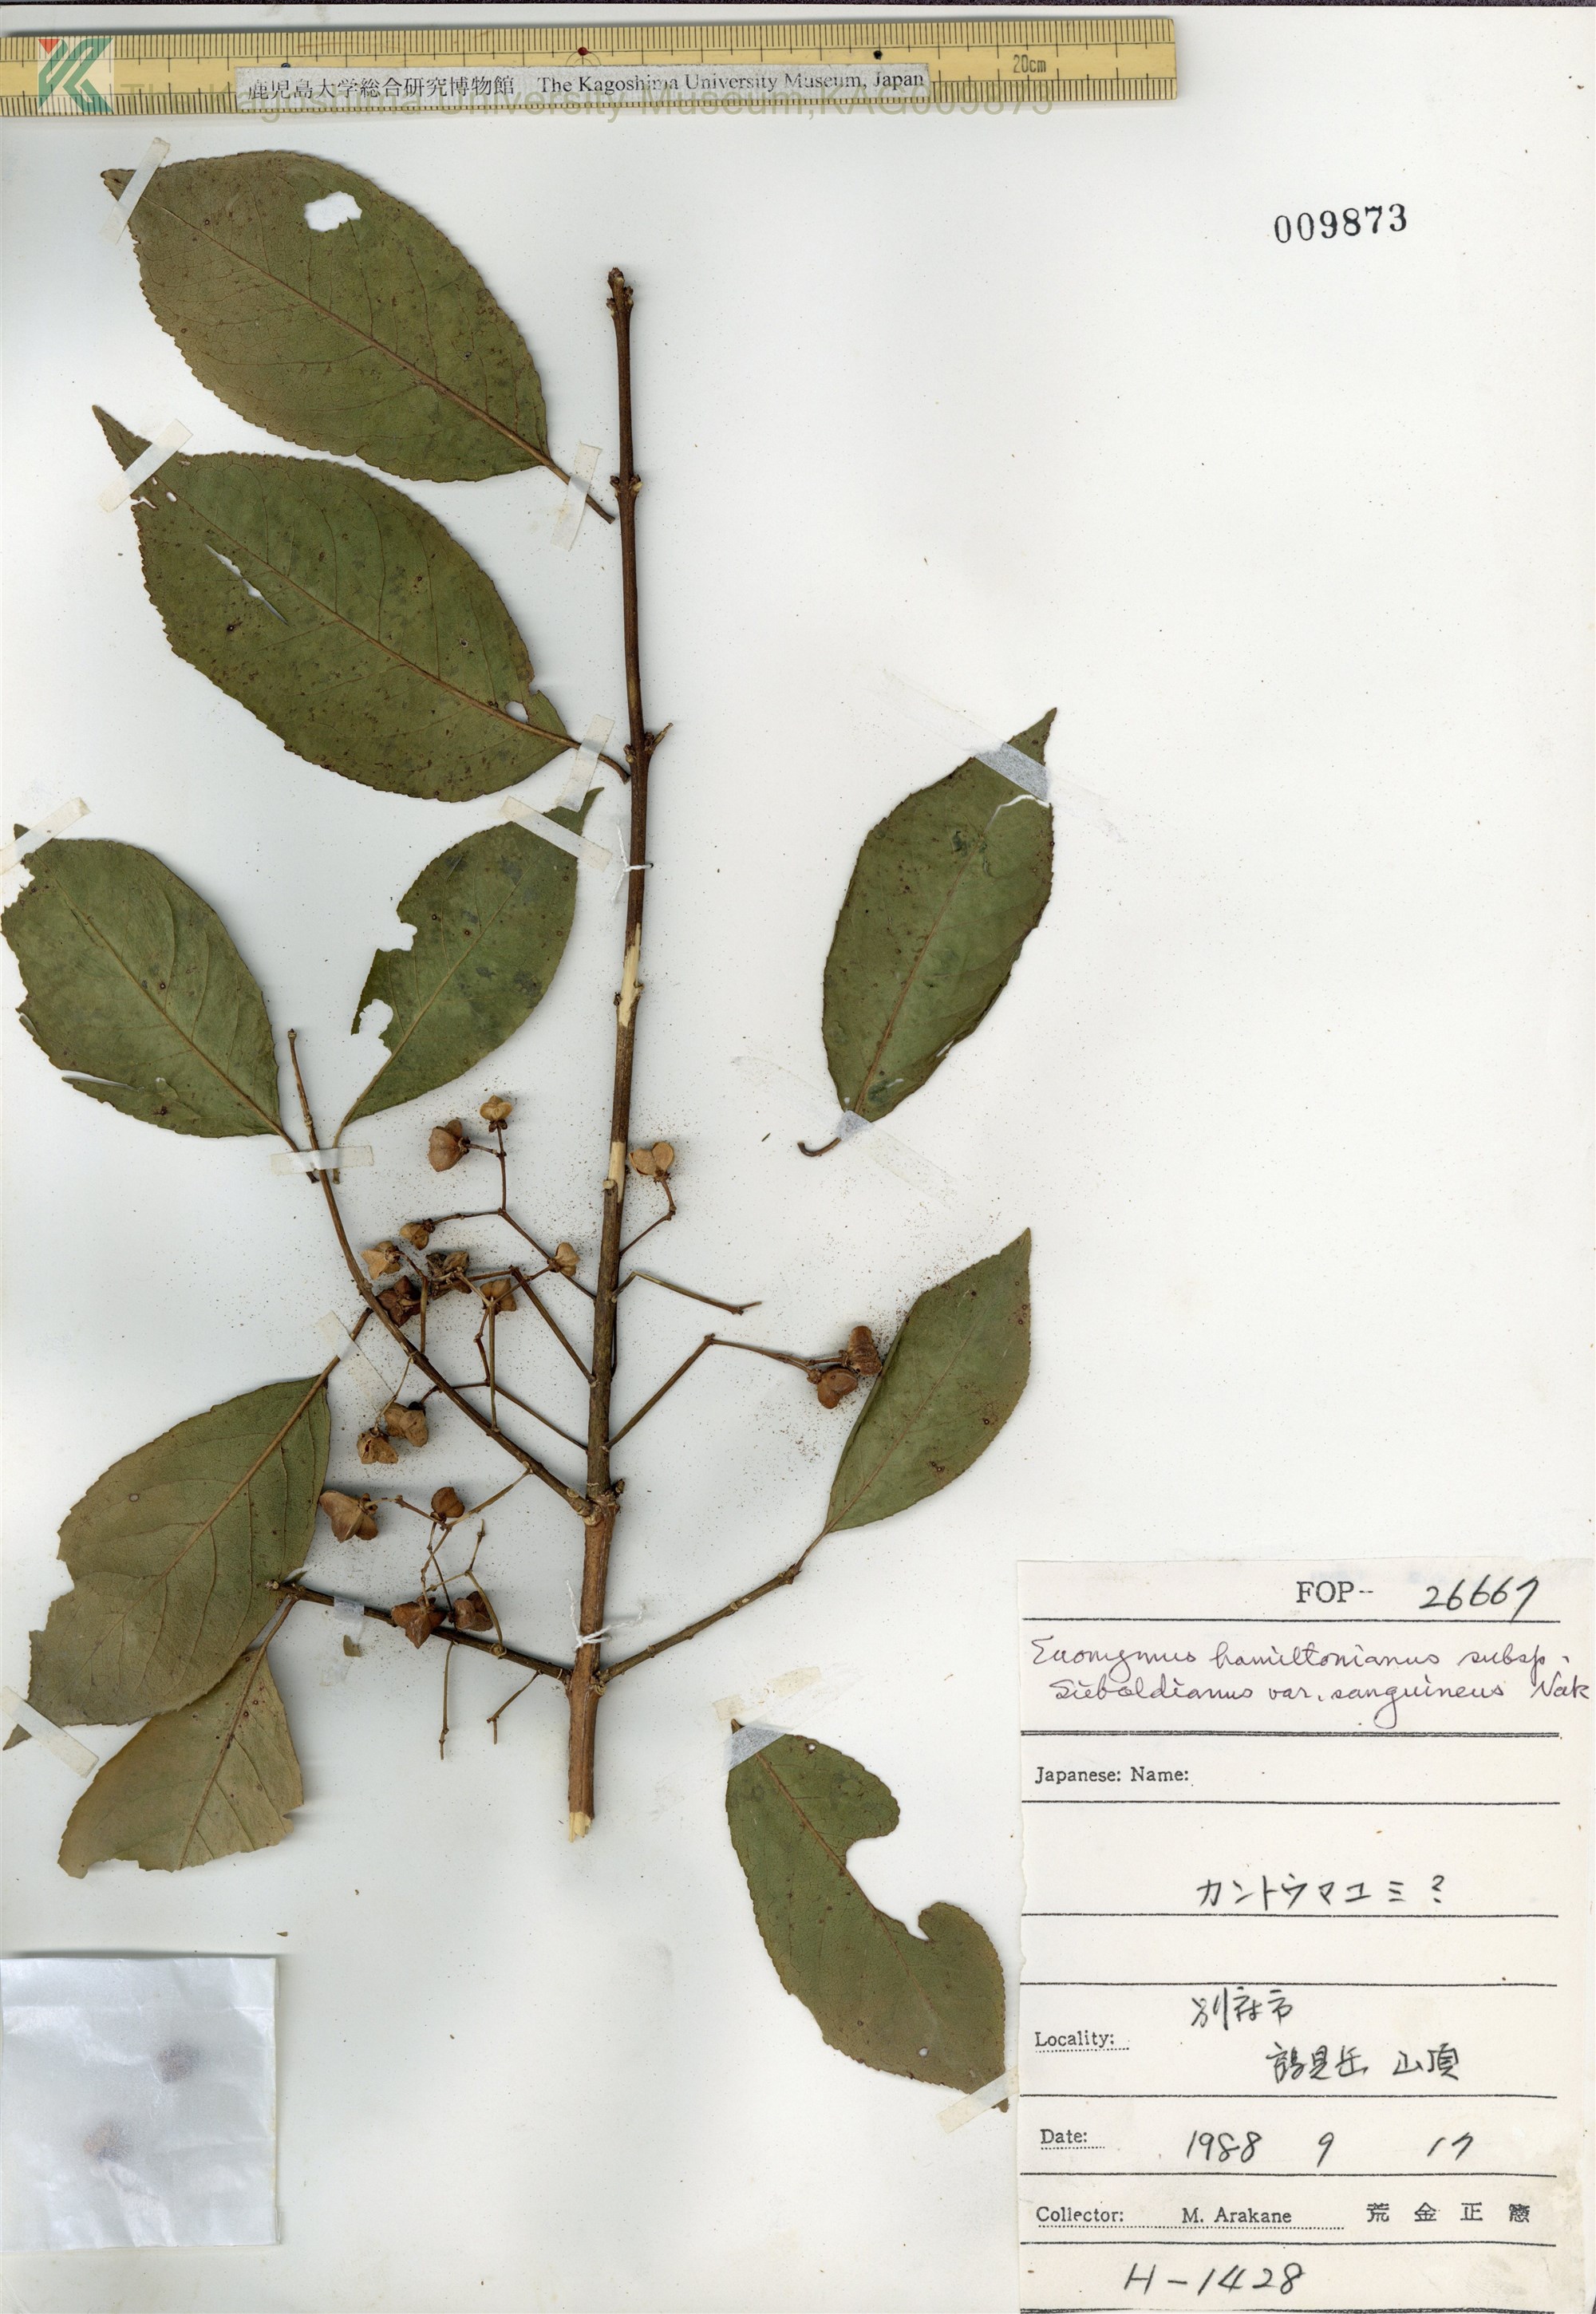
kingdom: Plantae
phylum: Tracheophyta
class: Magnoliopsida
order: Celastrales
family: Celastraceae
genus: Euonymus
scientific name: Euonymus hamiltonianus
